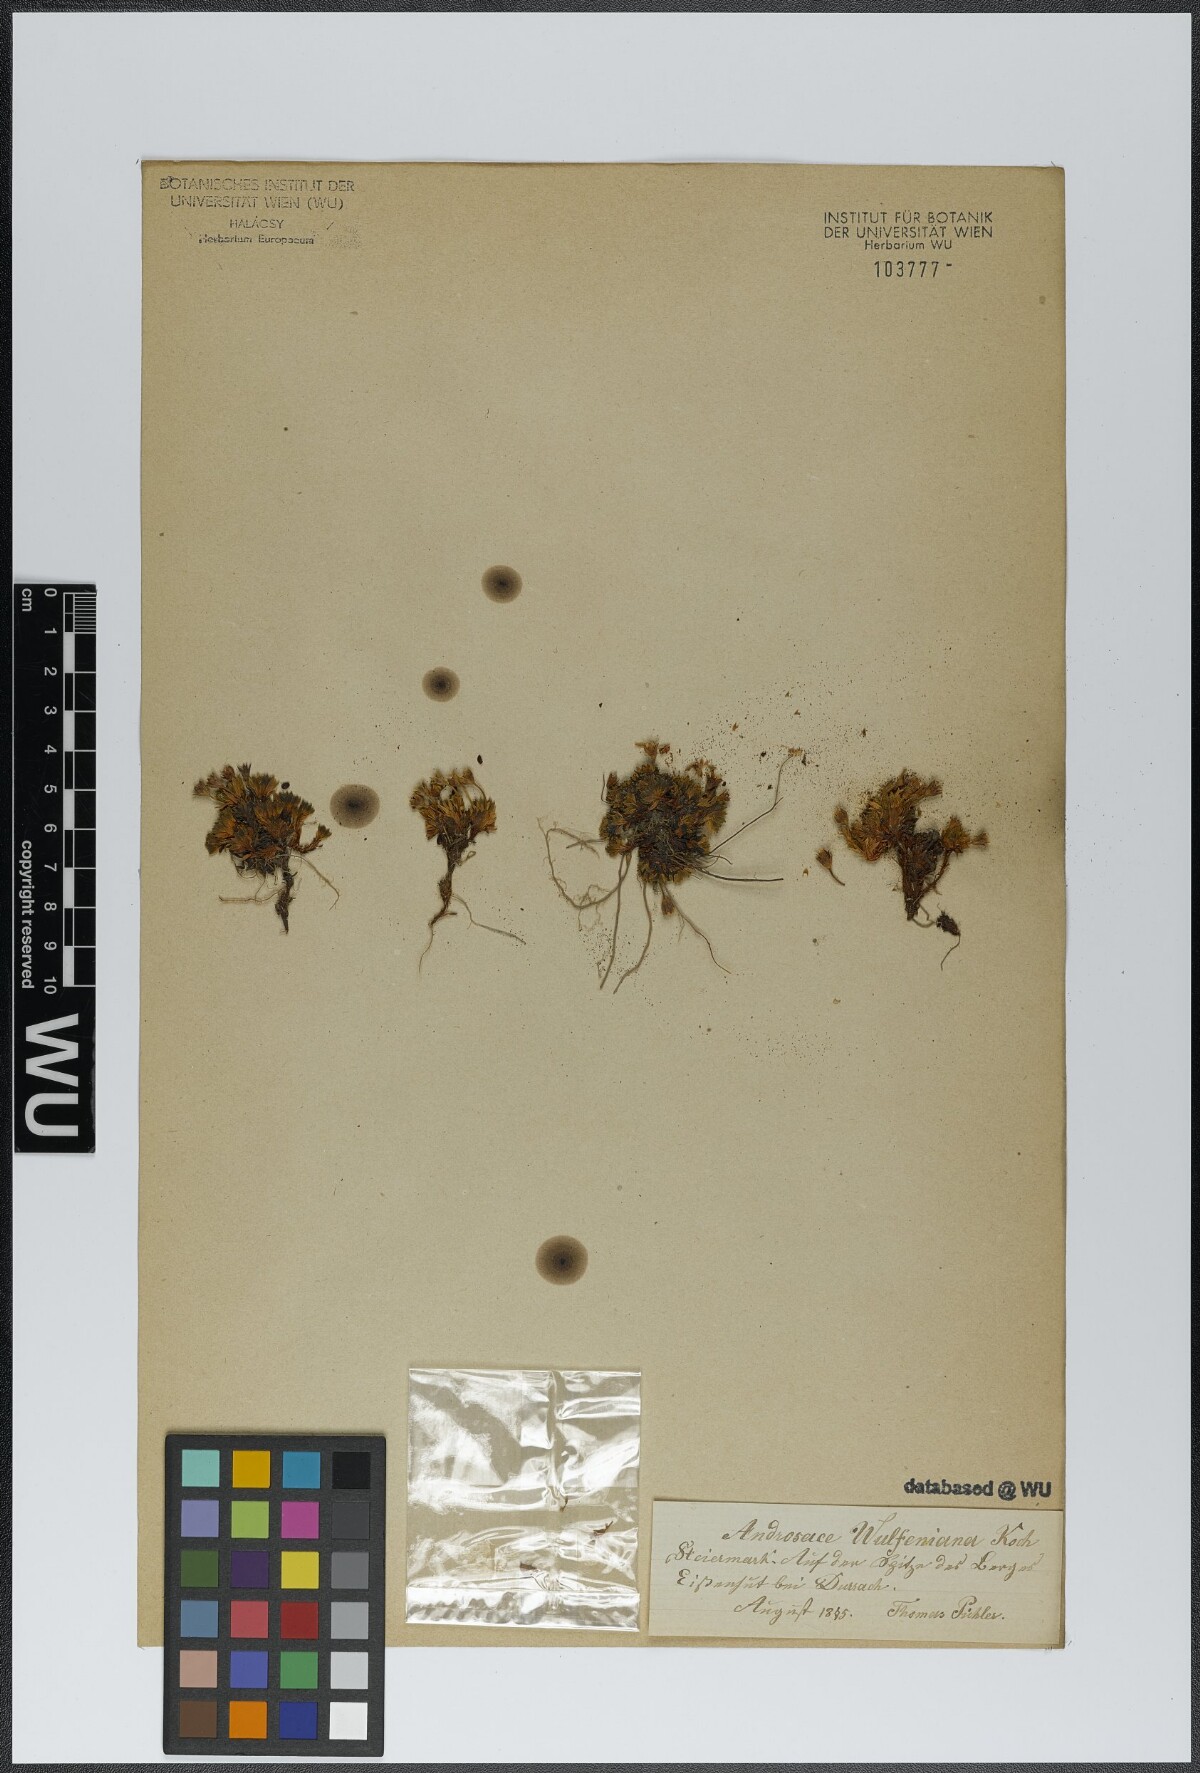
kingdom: Plantae
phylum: Tracheophyta
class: Magnoliopsida
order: Ericales
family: Primulaceae
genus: Androsace
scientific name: Androsace wulfeniana
